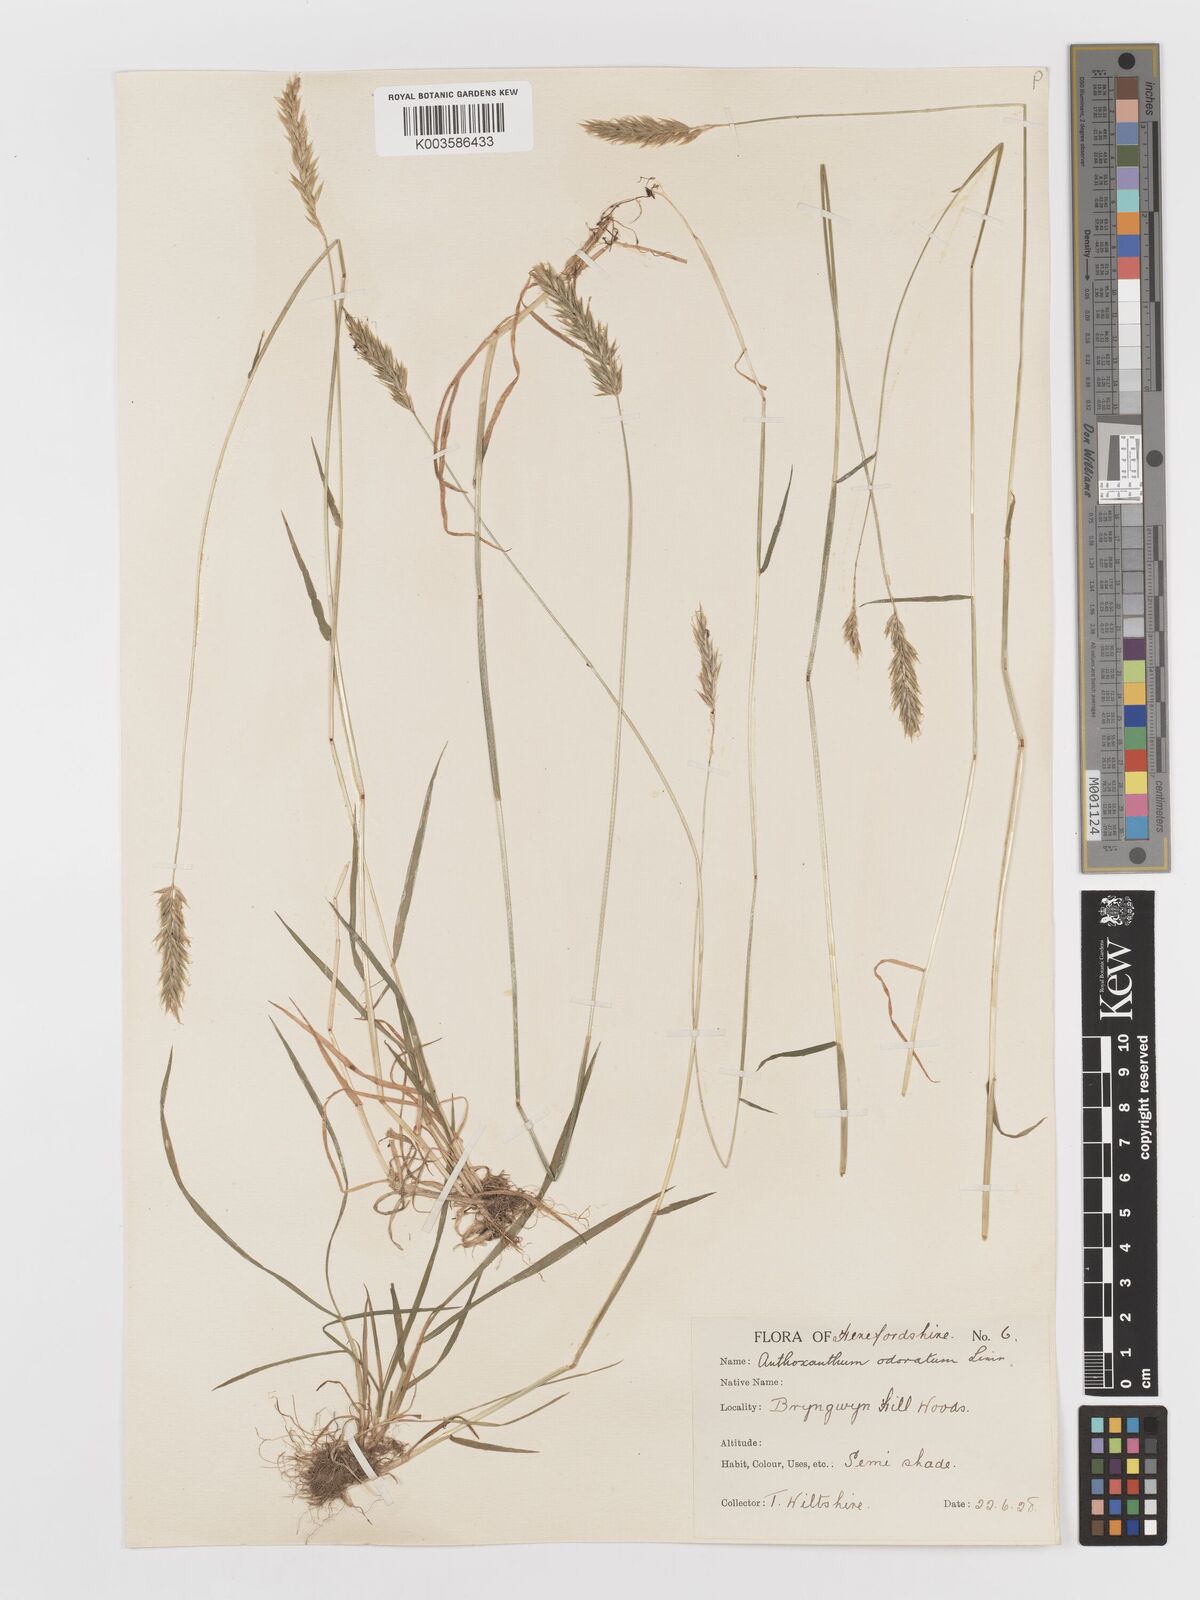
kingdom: Plantae
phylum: Tracheophyta
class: Liliopsida
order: Poales
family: Poaceae
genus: Anthoxanthum
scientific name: Anthoxanthum odoratum
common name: Sweet vernalgrass
